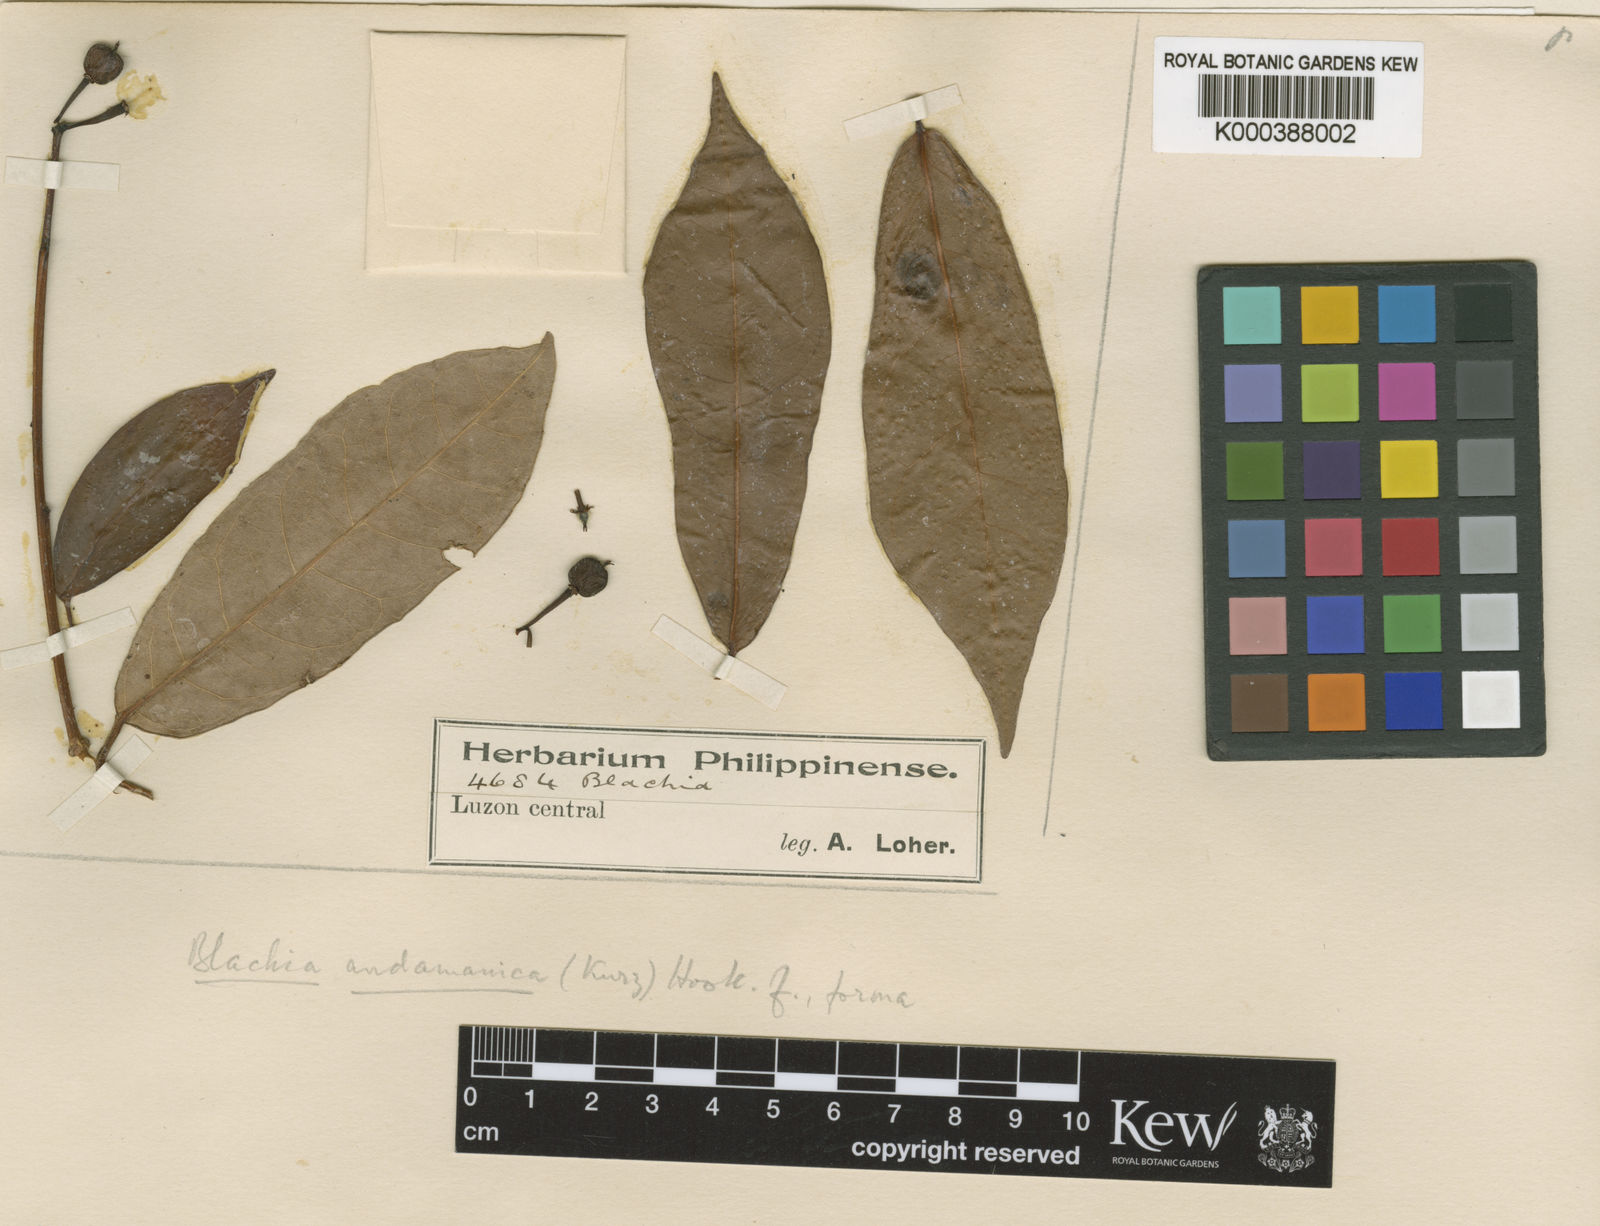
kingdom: Plantae
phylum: Tracheophyta
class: Magnoliopsida
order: Malpighiales
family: Euphorbiaceae
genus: Blachia
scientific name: Blachia andamanica
